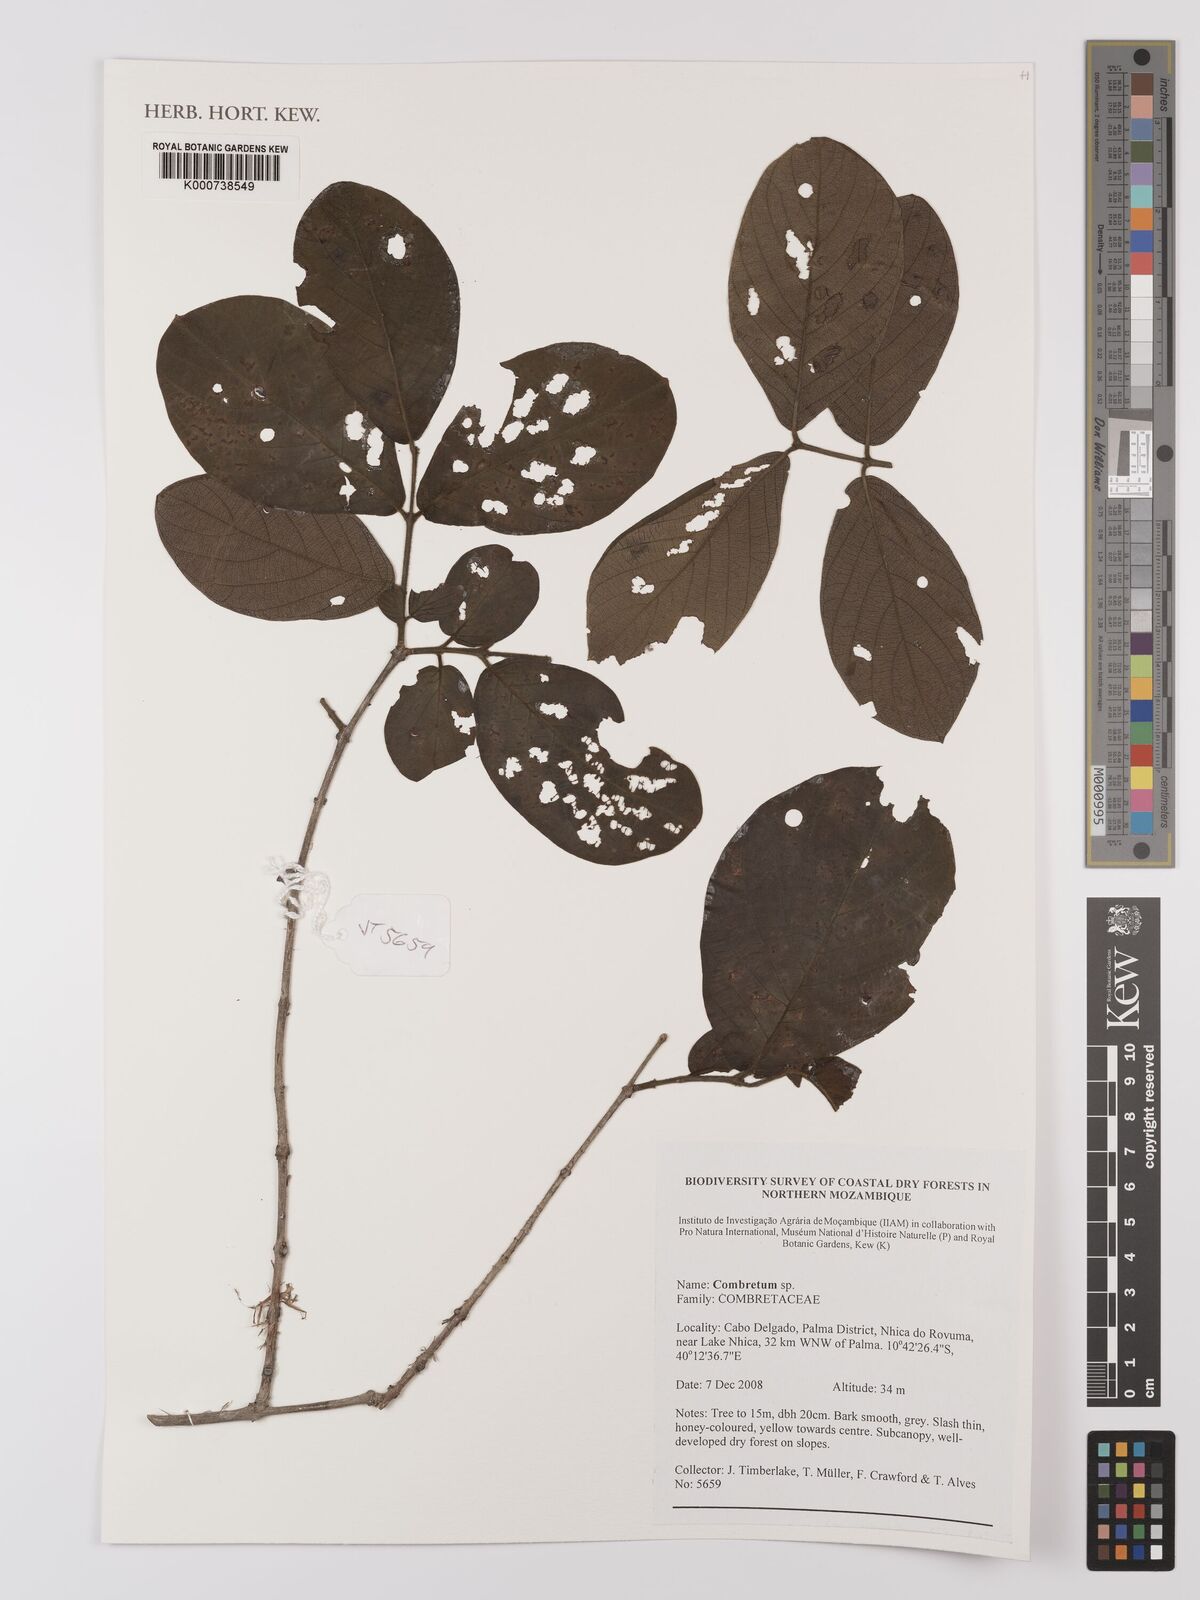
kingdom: Plantae
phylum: Tracheophyta
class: Magnoliopsida
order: Myrtales
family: Combretaceae
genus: Combretum
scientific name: Combretum
